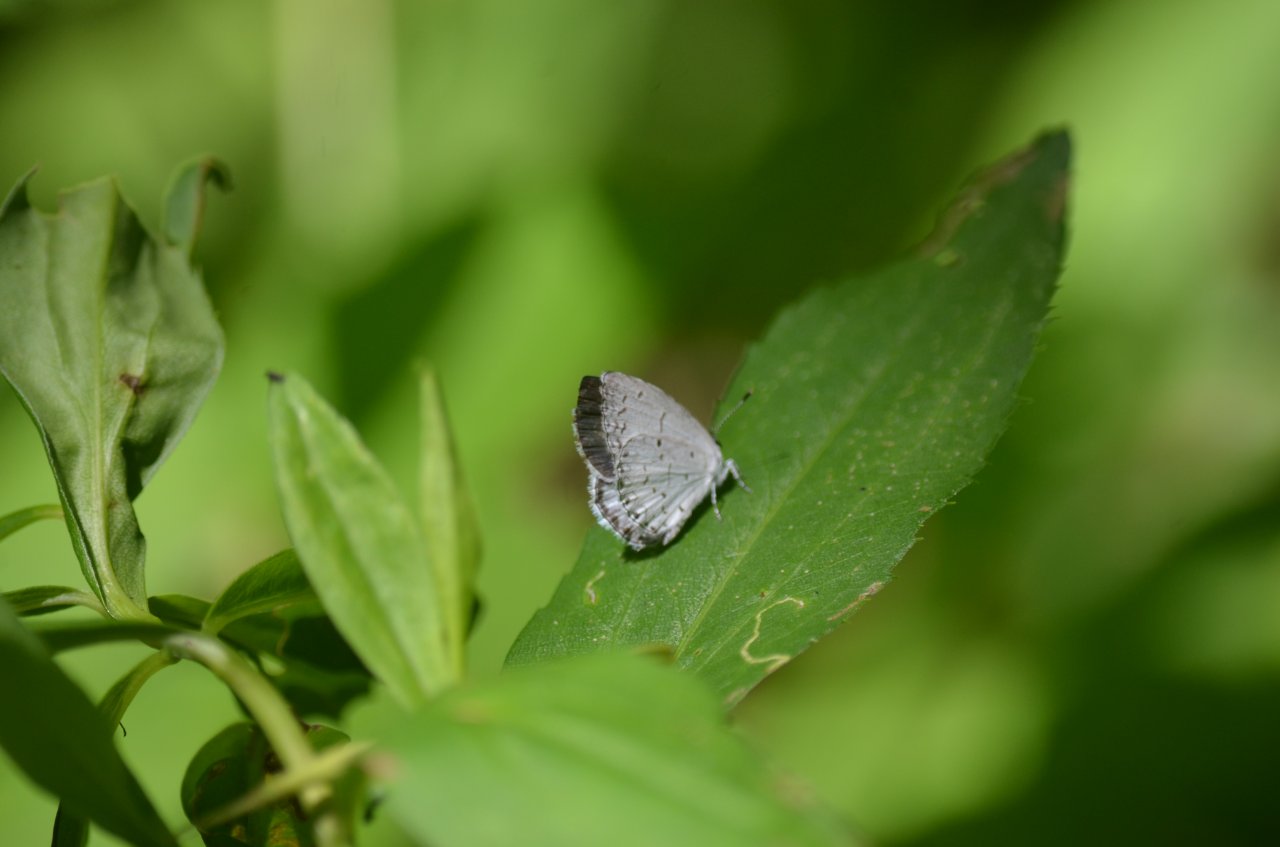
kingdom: Animalia
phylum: Arthropoda
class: Insecta
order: Lepidoptera
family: Lycaenidae
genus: Celastrina
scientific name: Celastrina
